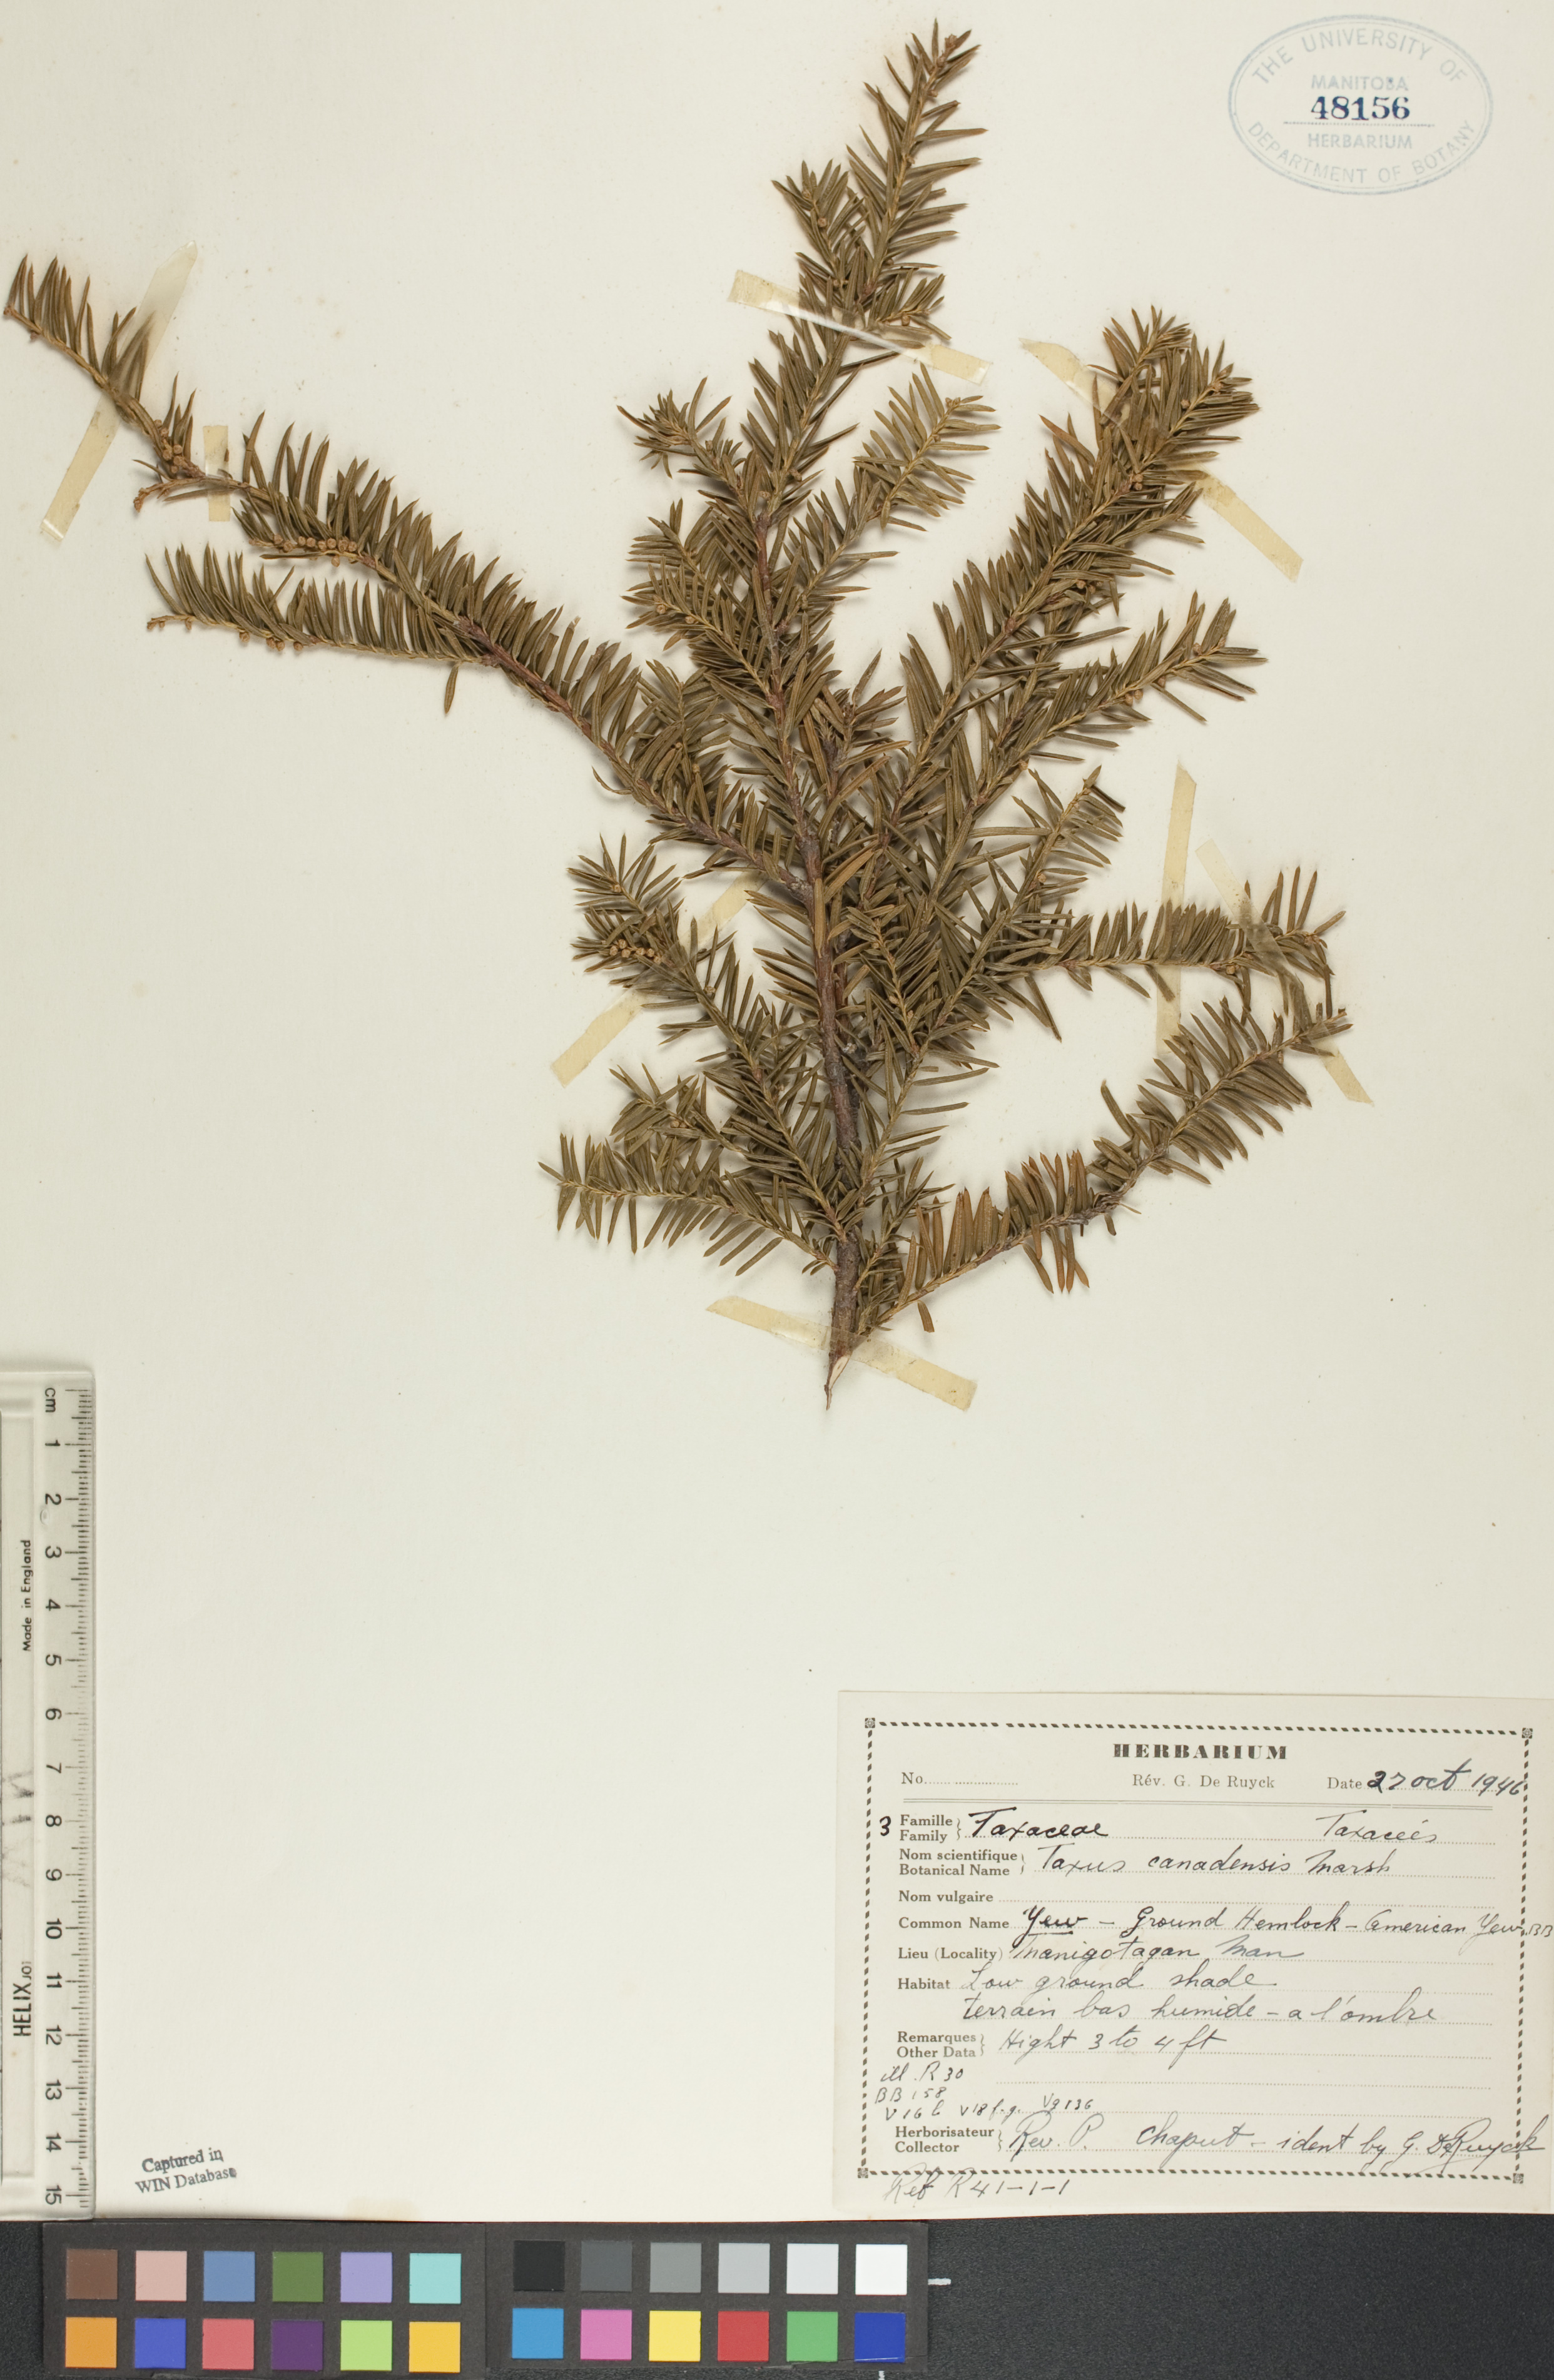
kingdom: Plantae
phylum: Tracheophyta
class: Pinopsida
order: Pinales
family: Taxaceae
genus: Taxus
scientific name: Taxus canadensis
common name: American yew
